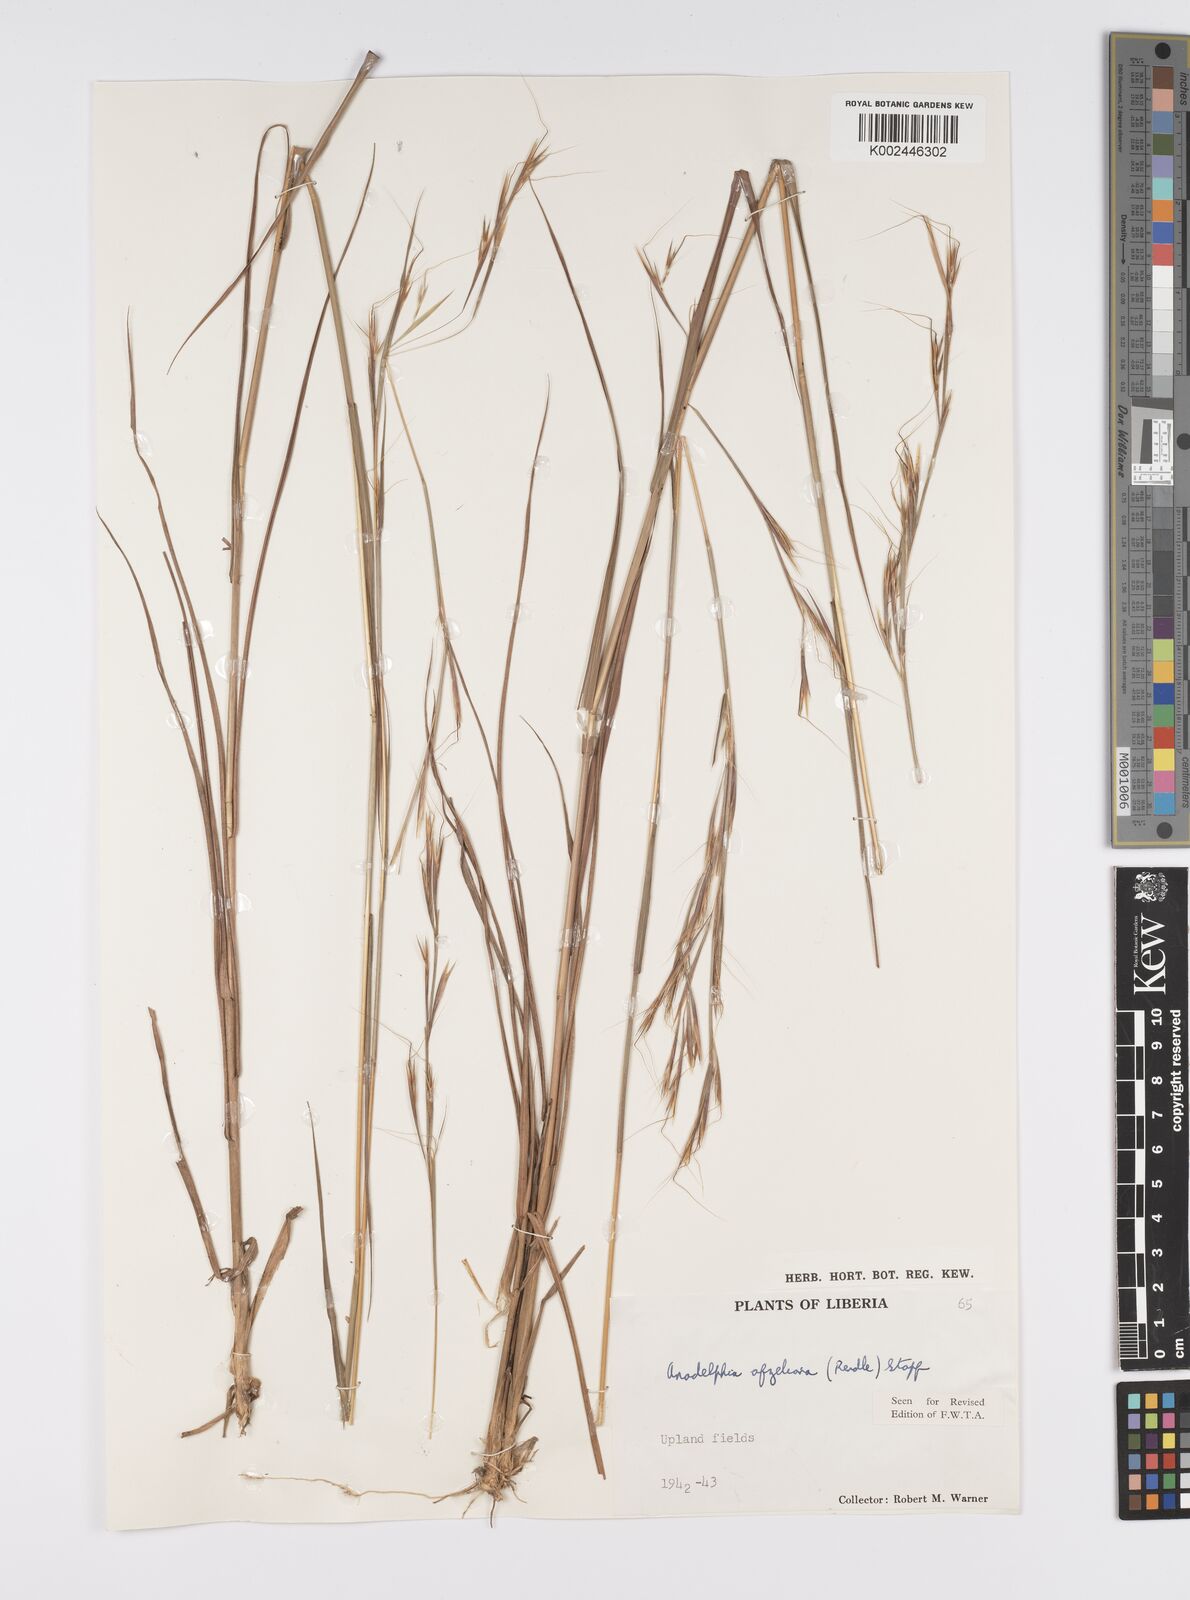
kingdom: Plantae
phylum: Tracheophyta
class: Liliopsida
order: Poales
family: Poaceae
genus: Anadelphia
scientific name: Anadelphia afzeliana
